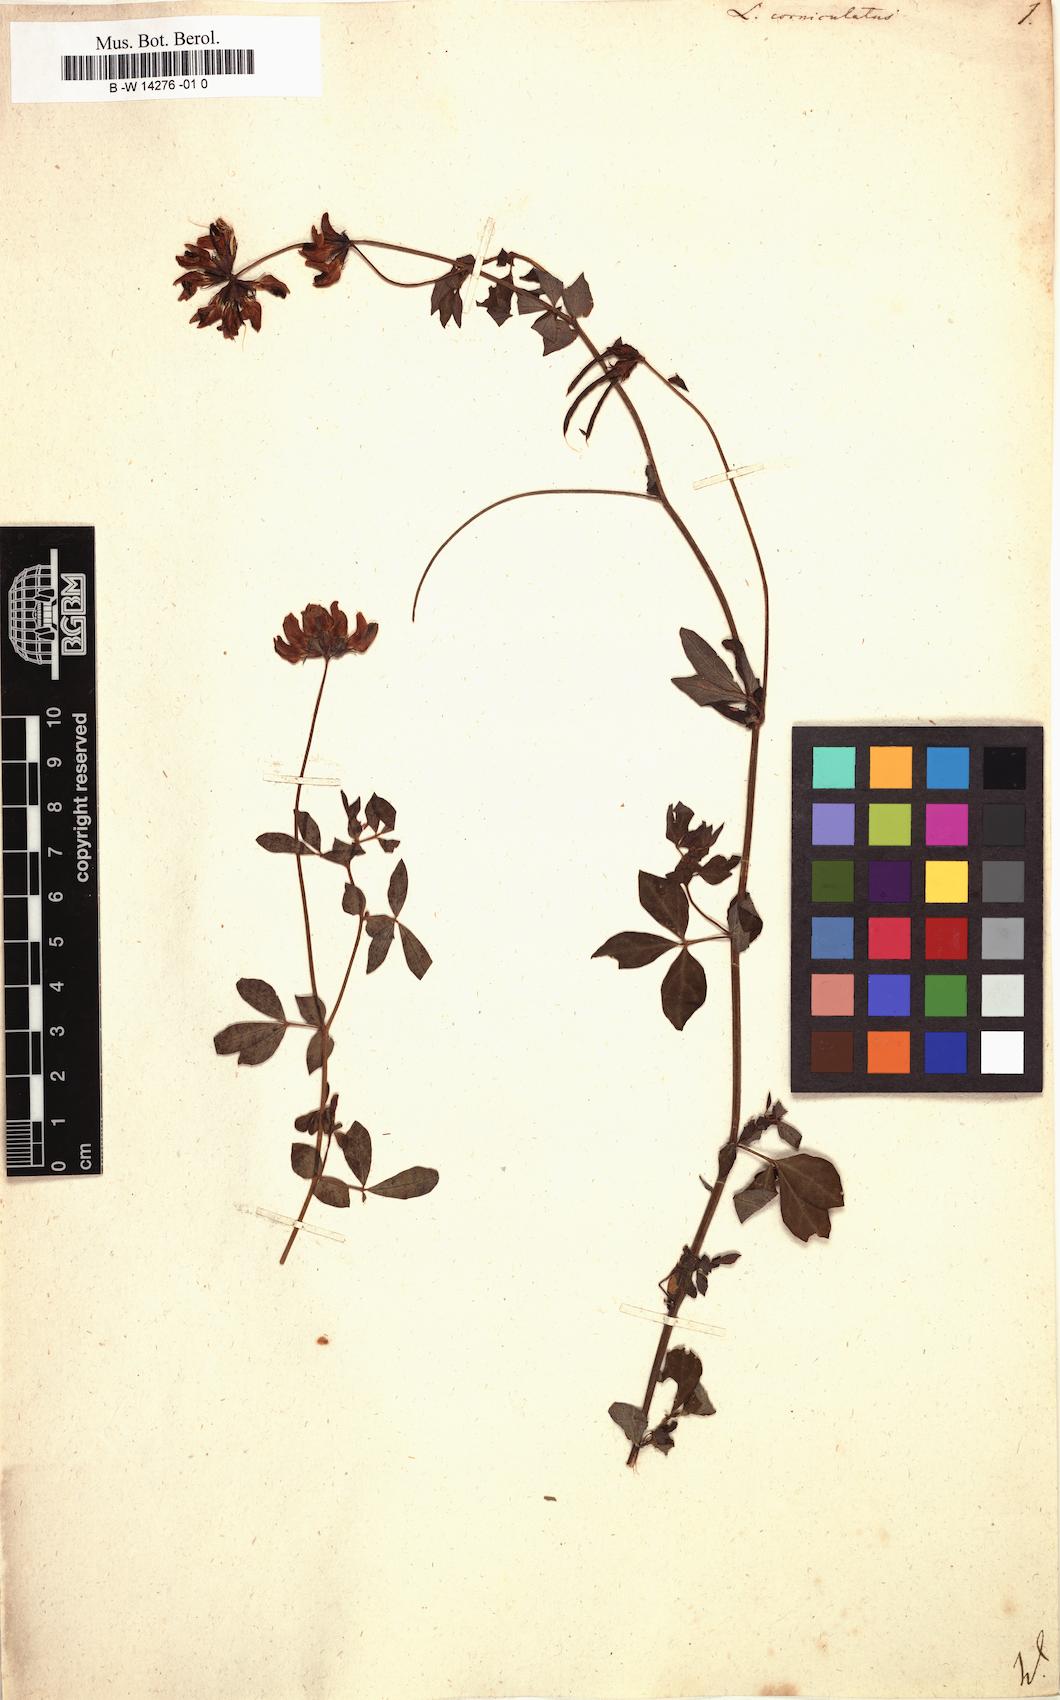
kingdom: Plantae
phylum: Tracheophyta
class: Magnoliopsida
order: Fabales
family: Fabaceae
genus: Lotus
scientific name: Lotus corniculatus
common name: Common bird's-foot-trefoil
